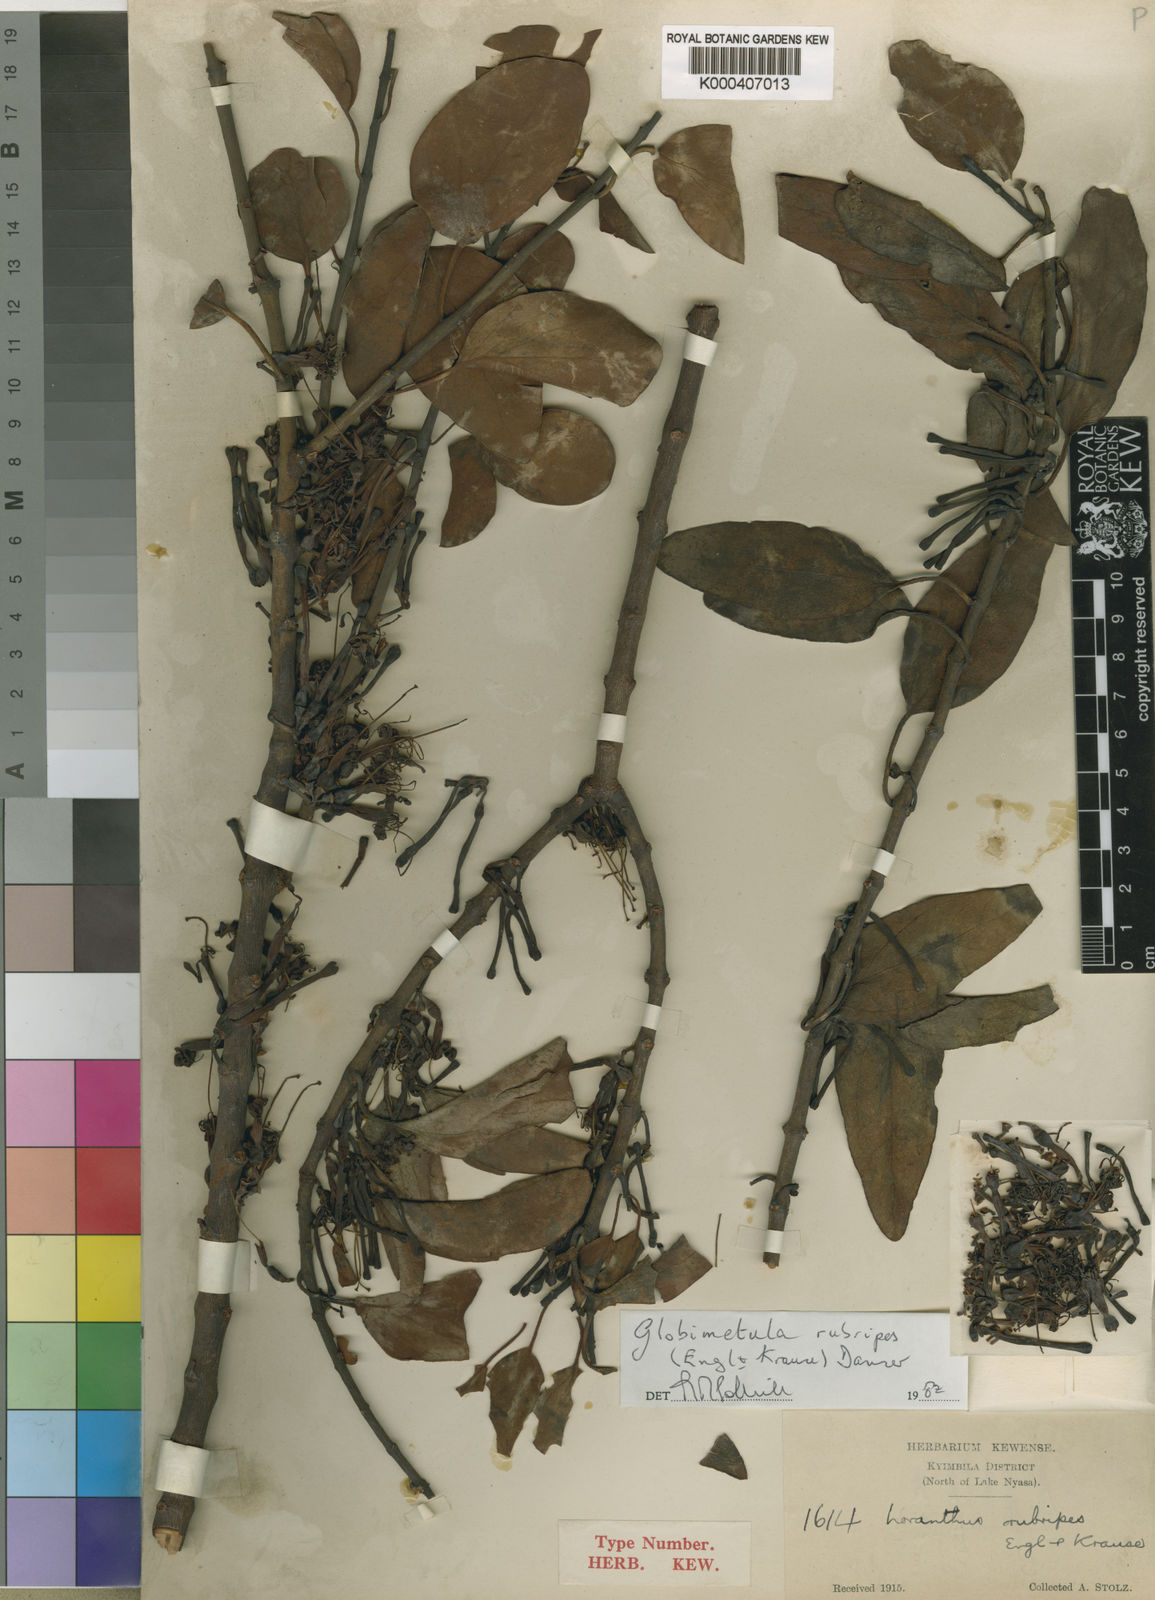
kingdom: Plantae
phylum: Tracheophyta
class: Magnoliopsida
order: Santalales
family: Loranthaceae
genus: Globimetula
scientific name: Globimetula rubripes
